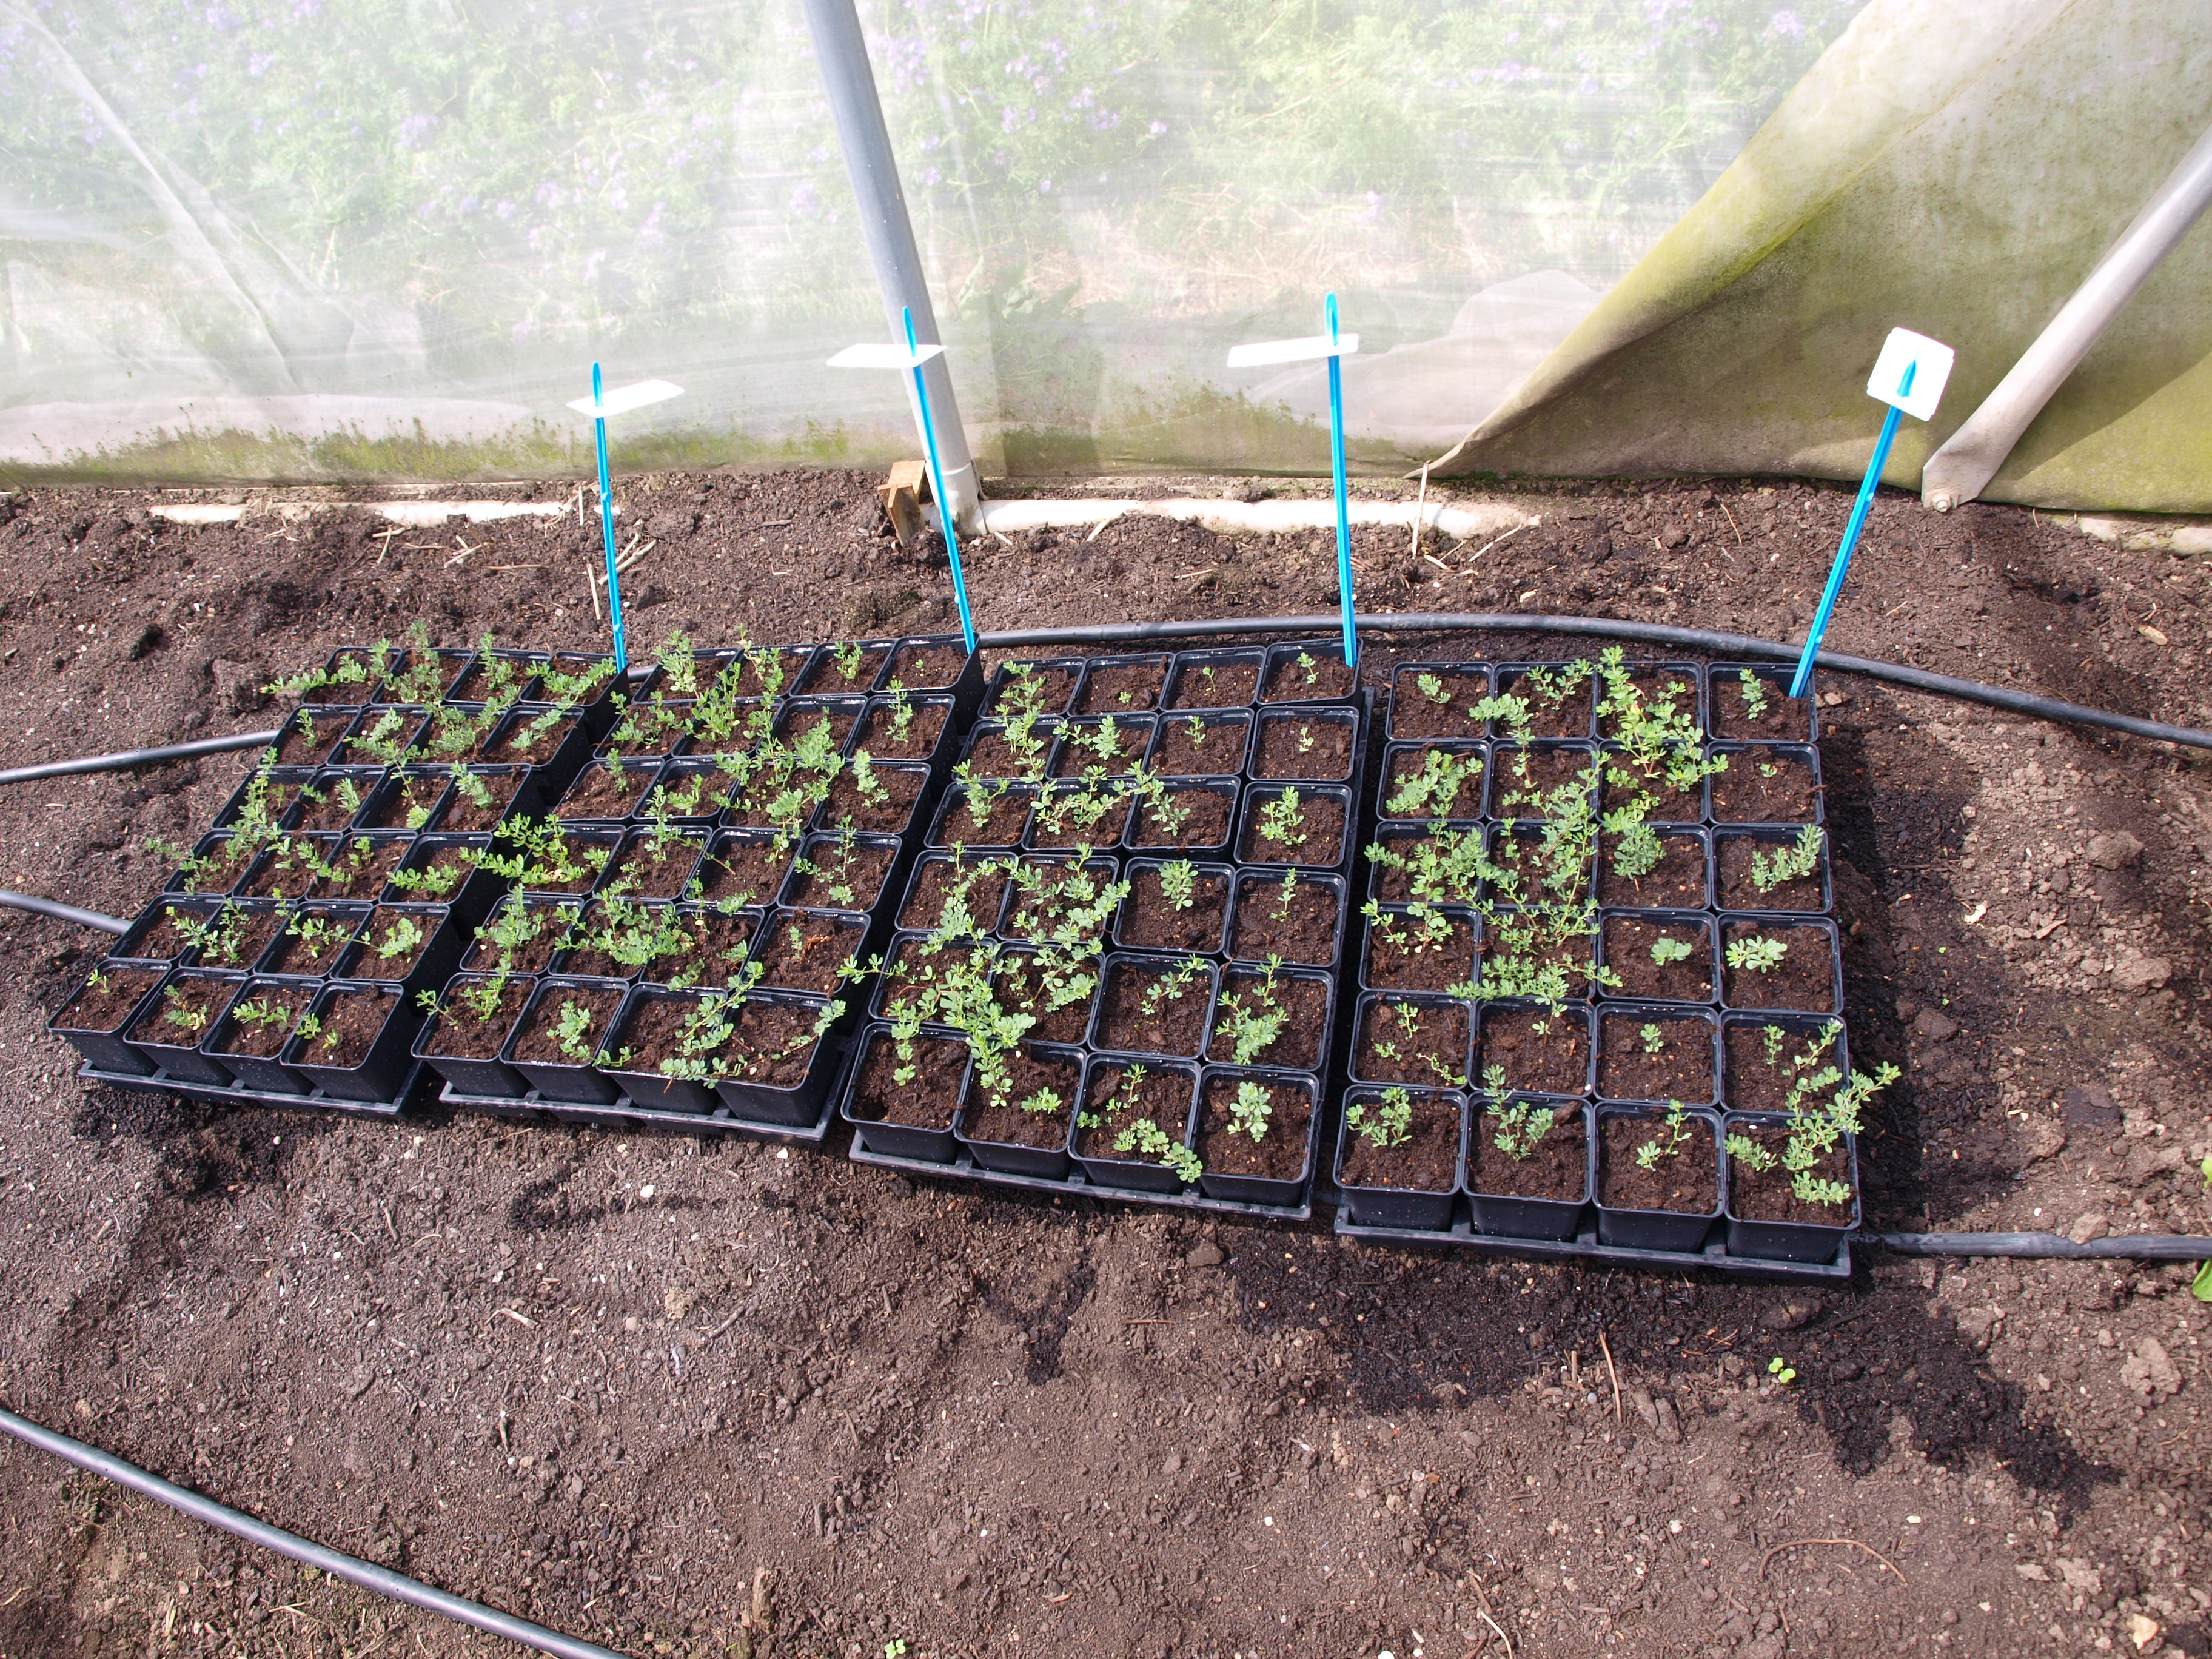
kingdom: Plantae
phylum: Tracheophyta
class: Magnoliopsida
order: Fabales
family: Fabaceae
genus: Lotus
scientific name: Lotus corniculatus
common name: Common bird's-foot-trefoil
